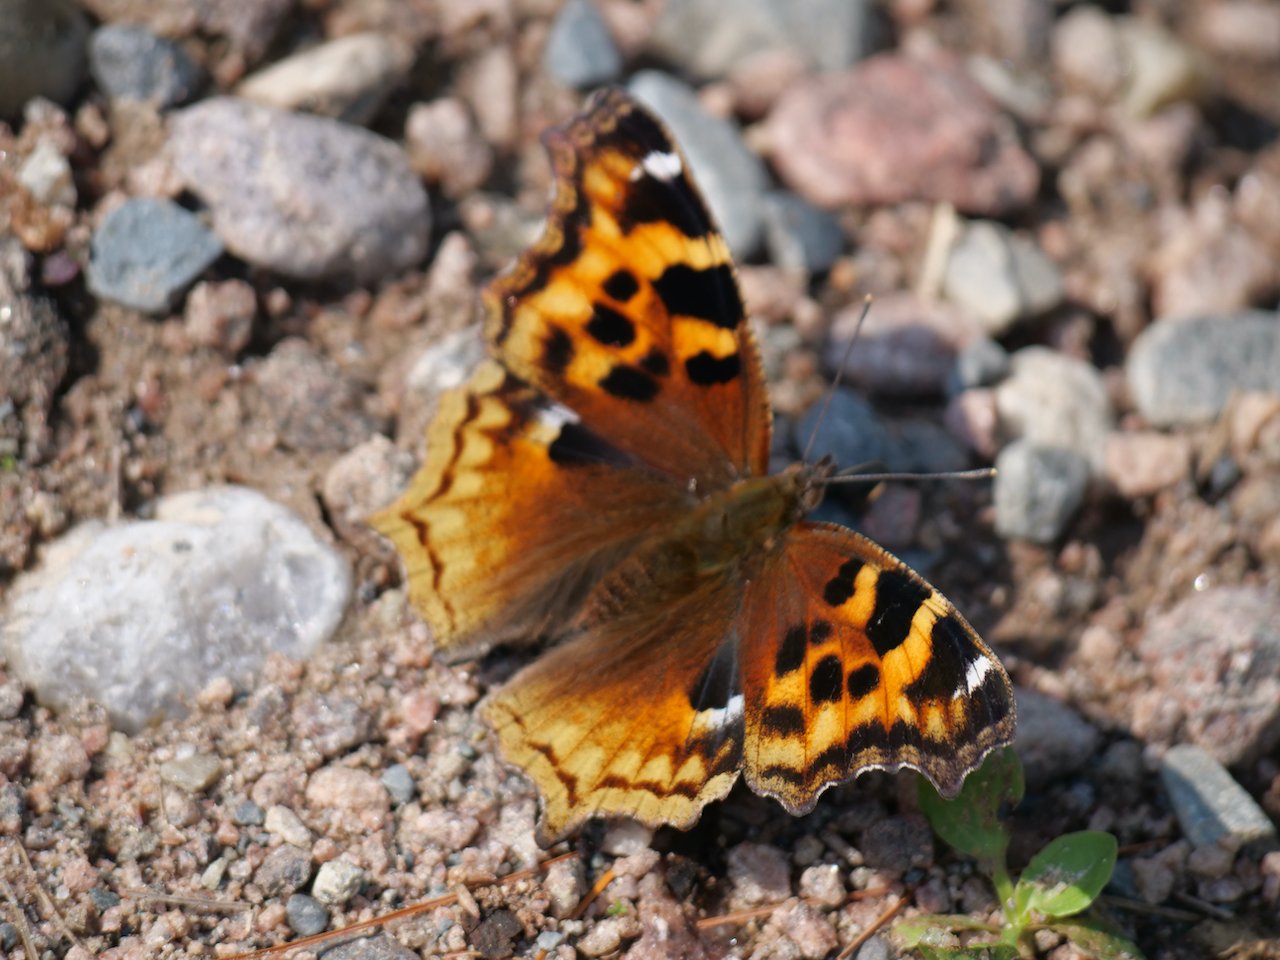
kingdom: Animalia
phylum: Arthropoda
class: Insecta
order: Lepidoptera
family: Nymphalidae
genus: Polygonia
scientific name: Polygonia vaualbum
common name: Compton Tortoiseshell
